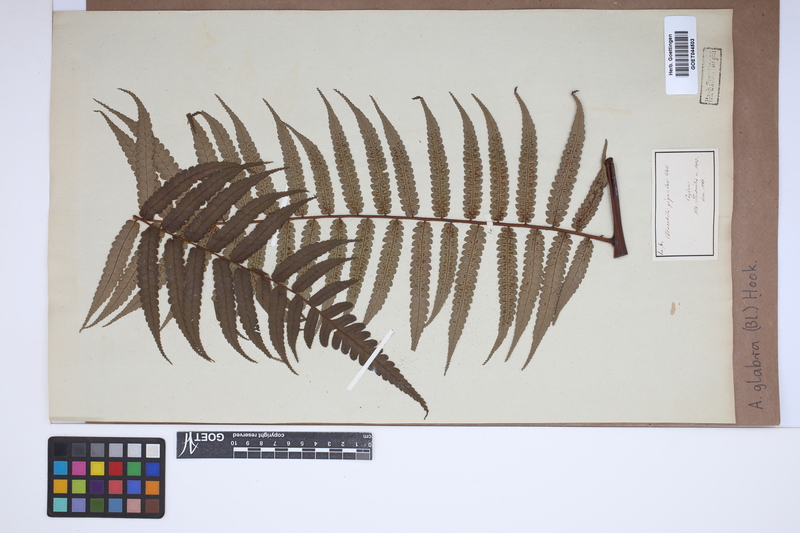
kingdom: Plantae
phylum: Tracheophyta
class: Polypodiopsida
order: Cyatheales
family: Cyatheaceae
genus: Gymnosphaera
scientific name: Gymnosphaera glabra
